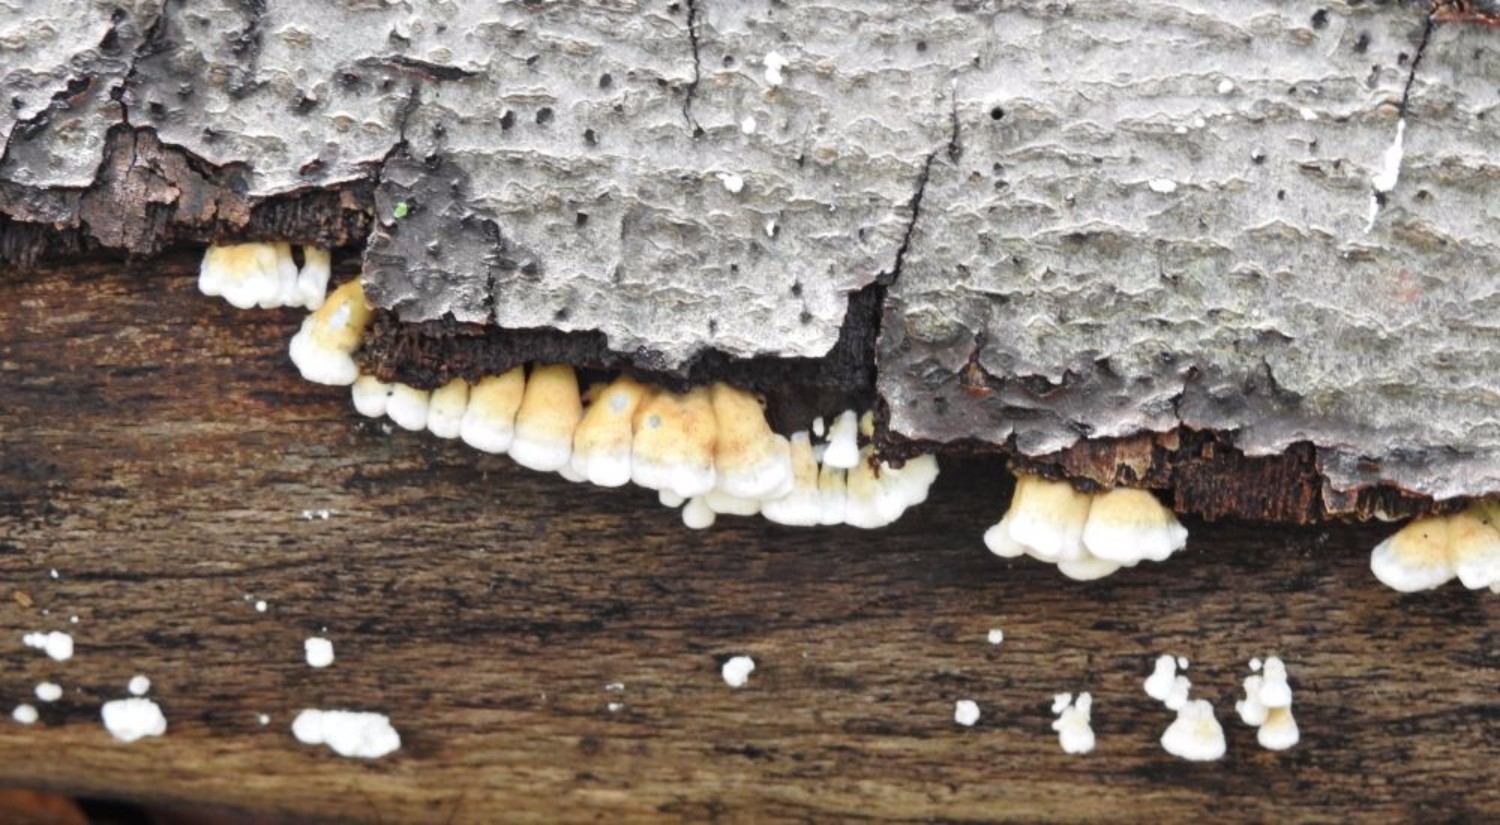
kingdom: Fungi
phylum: Basidiomycota
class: Agaricomycetes
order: Amylocorticiales
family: Amylocorticiaceae
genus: Plicaturopsis
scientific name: Plicaturopsis crispa
